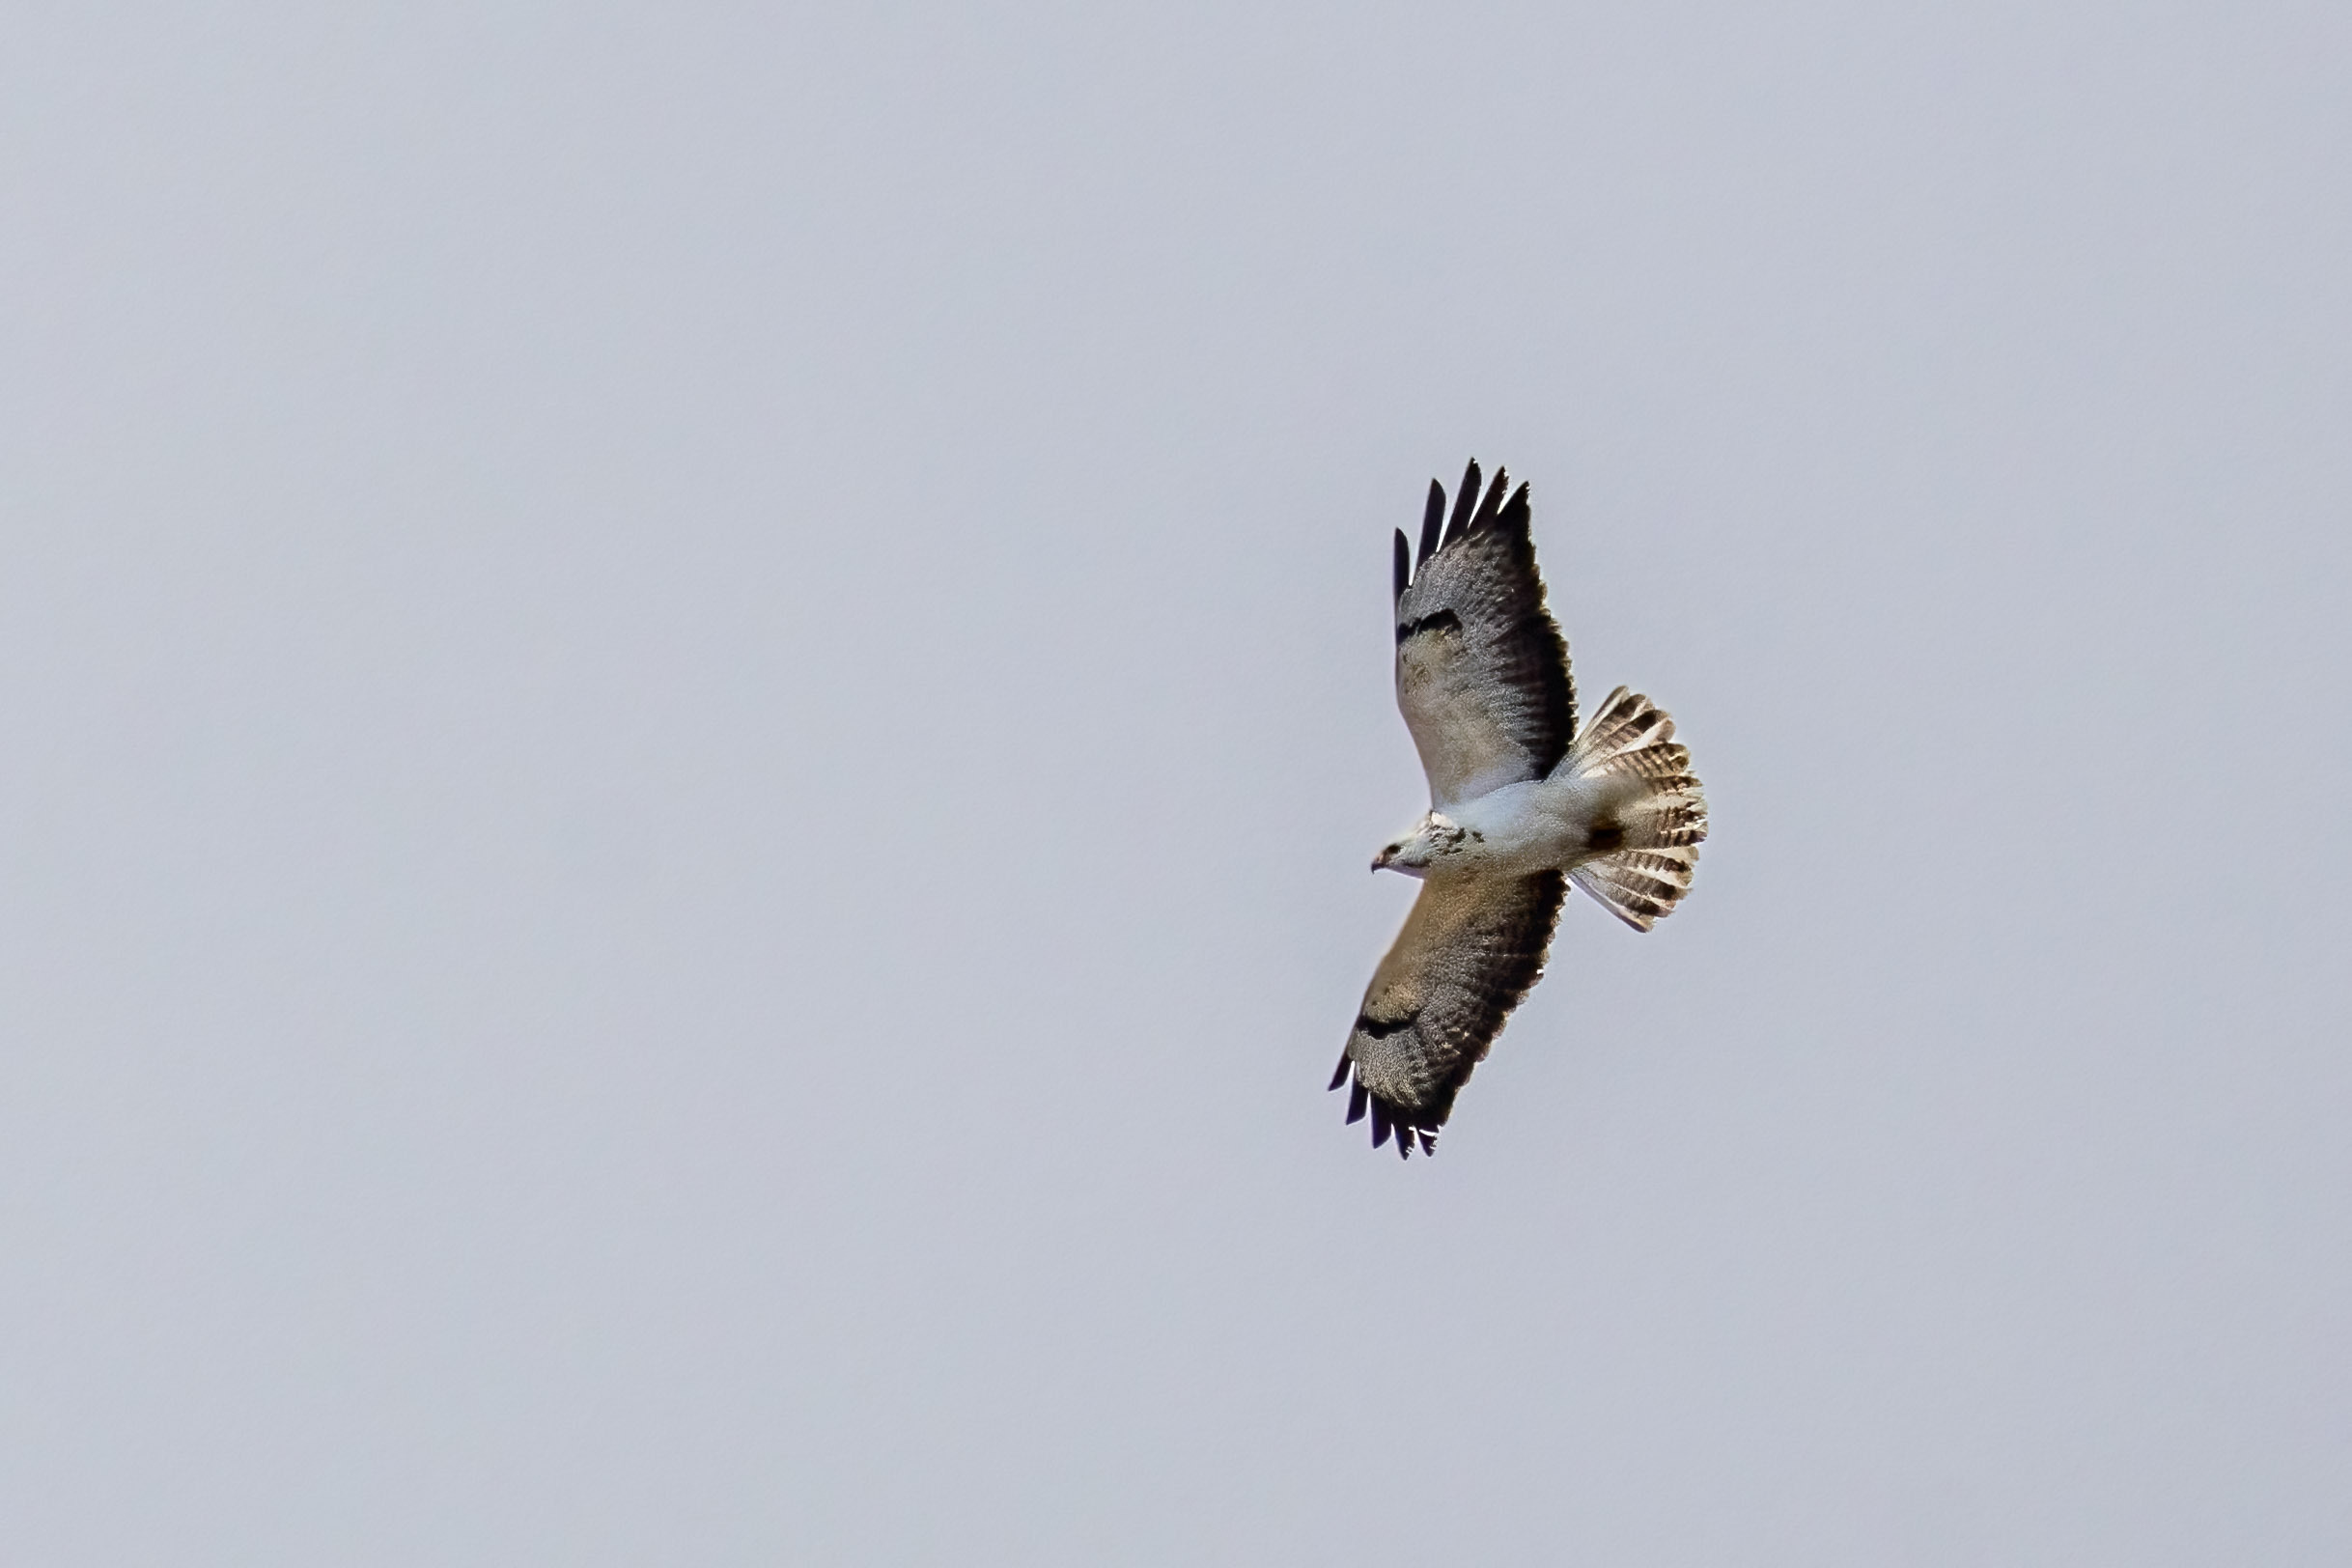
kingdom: Animalia
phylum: Chordata
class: Aves
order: Accipitriformes
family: Accipitridae
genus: Buteo
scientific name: Buteo buteo
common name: Musvåge
